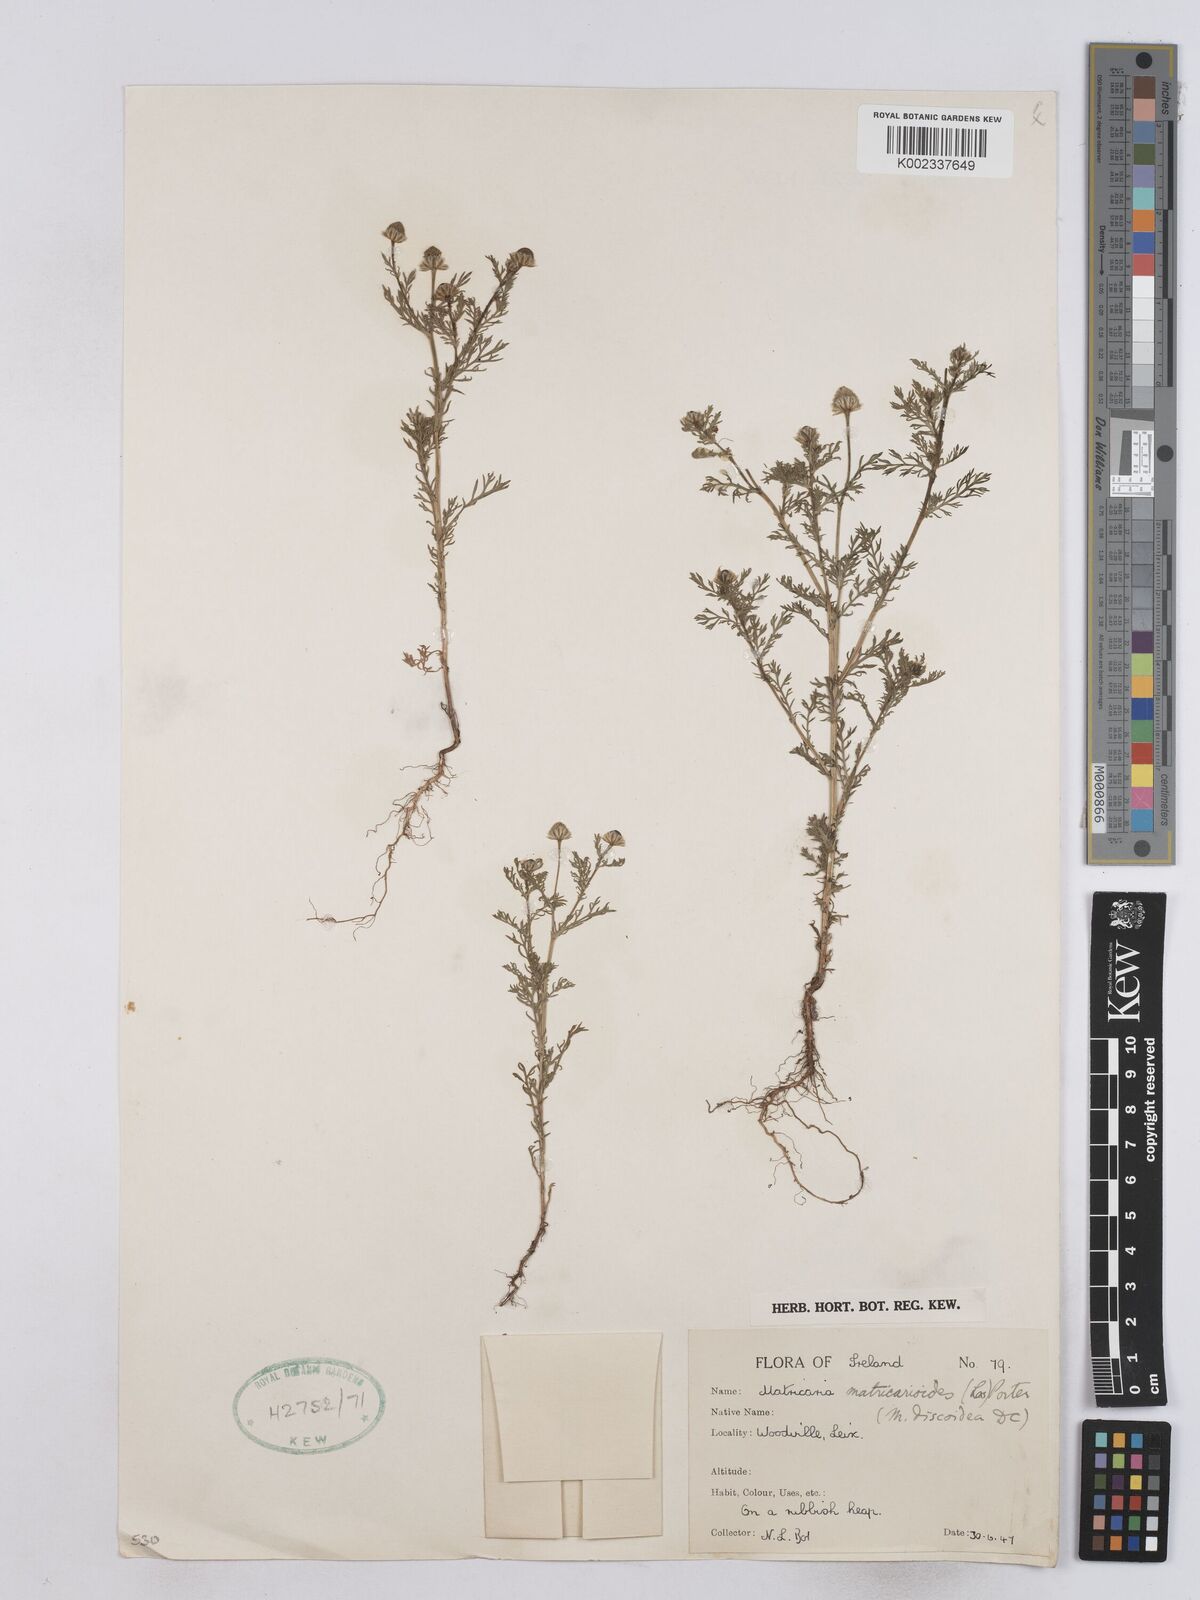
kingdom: Plantae
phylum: Tracheophyta
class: Magnoliopsida
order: Asterales
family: Asteraceae
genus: Matricaria
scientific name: Matricaria discoidea
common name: Disc mayweed
